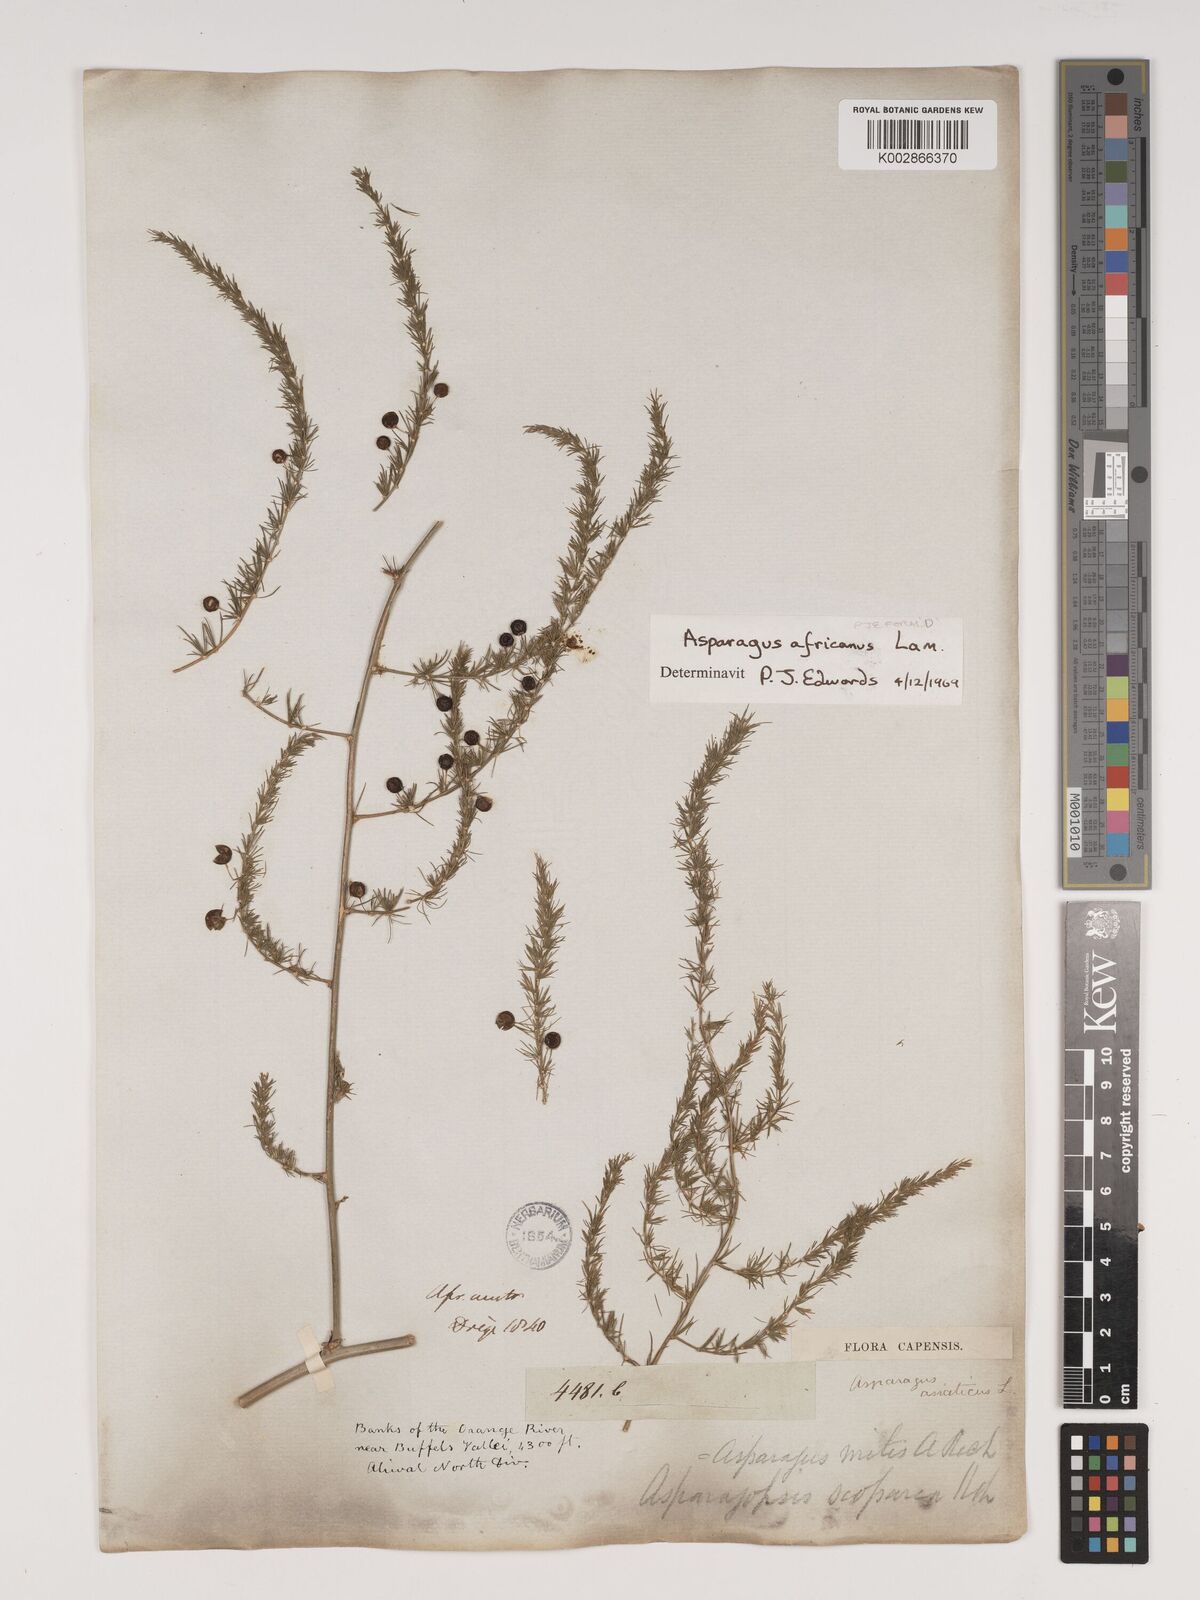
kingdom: Plantae
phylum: Tracheophyta
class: Liliopsida
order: Asparagales
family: Asparagaceae
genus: Asparagus
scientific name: Asparagus africanus
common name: Asparagus-fern
